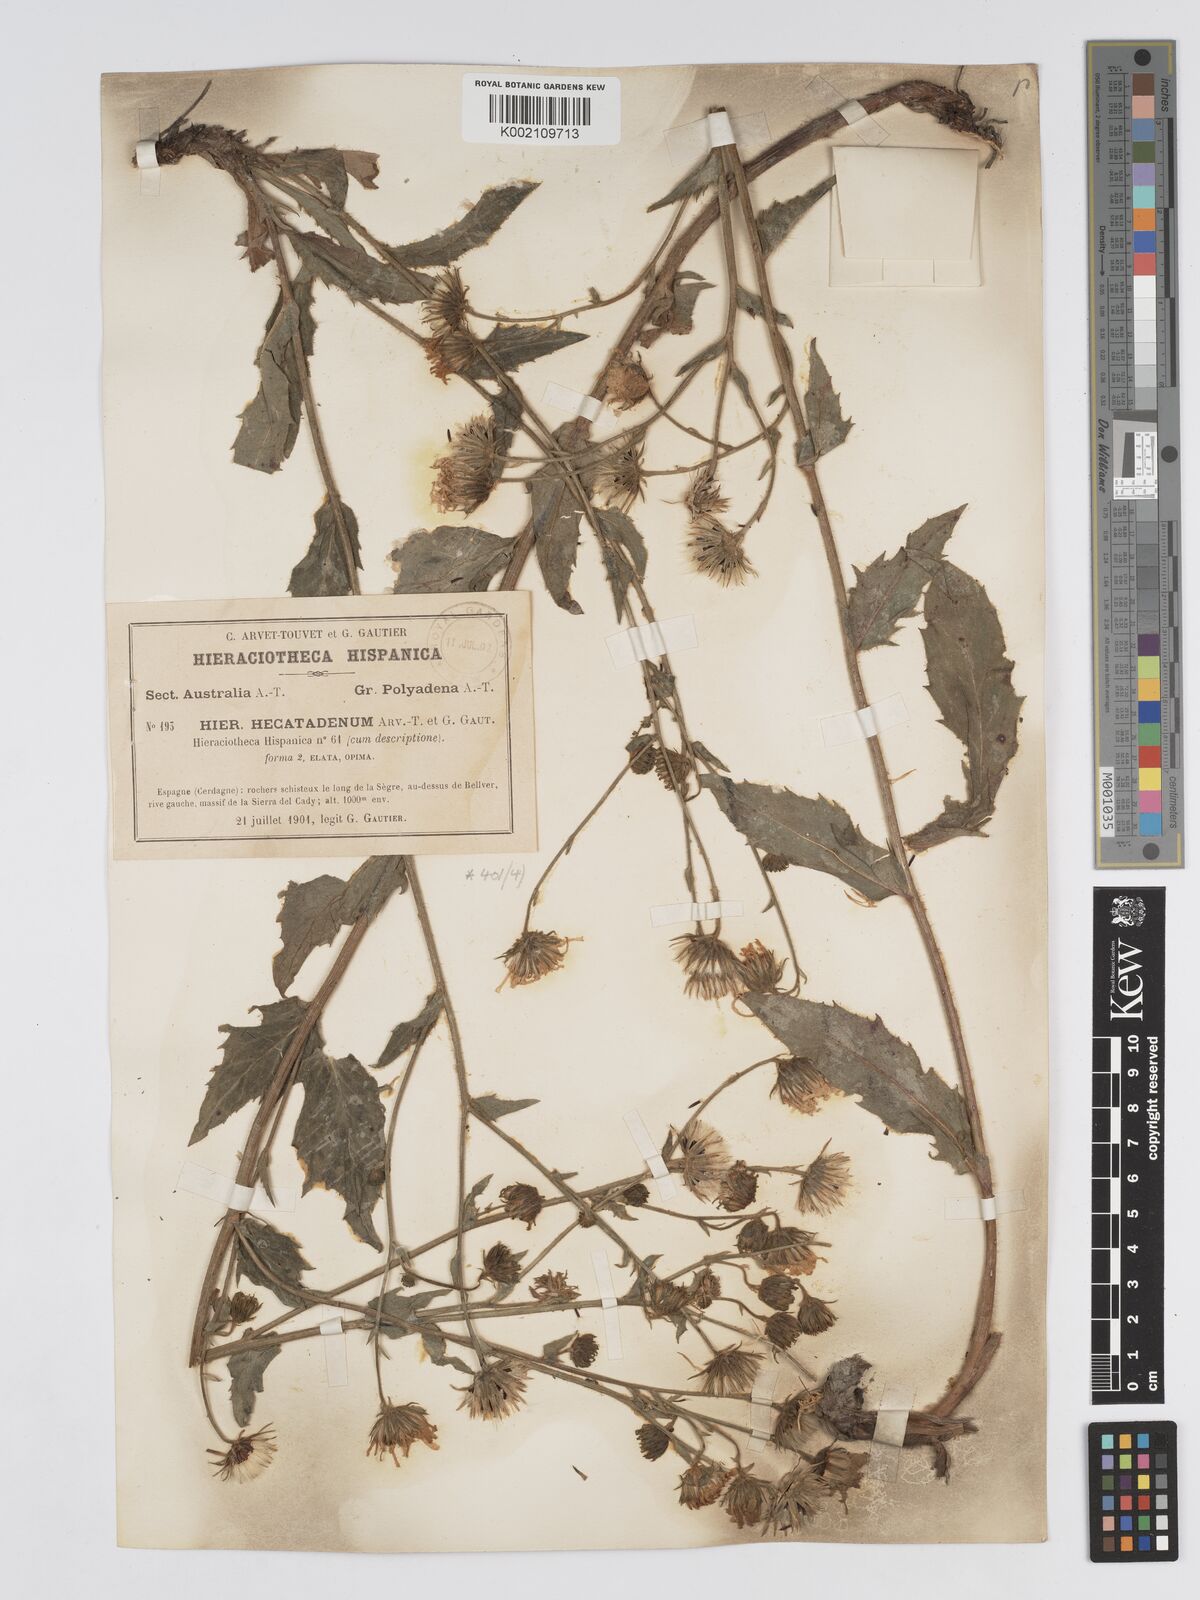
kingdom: Plantae
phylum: Tracheophyta
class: Magnoliopsida
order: Asterales
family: Asteraceae
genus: Hieracium
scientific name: Hieracium
